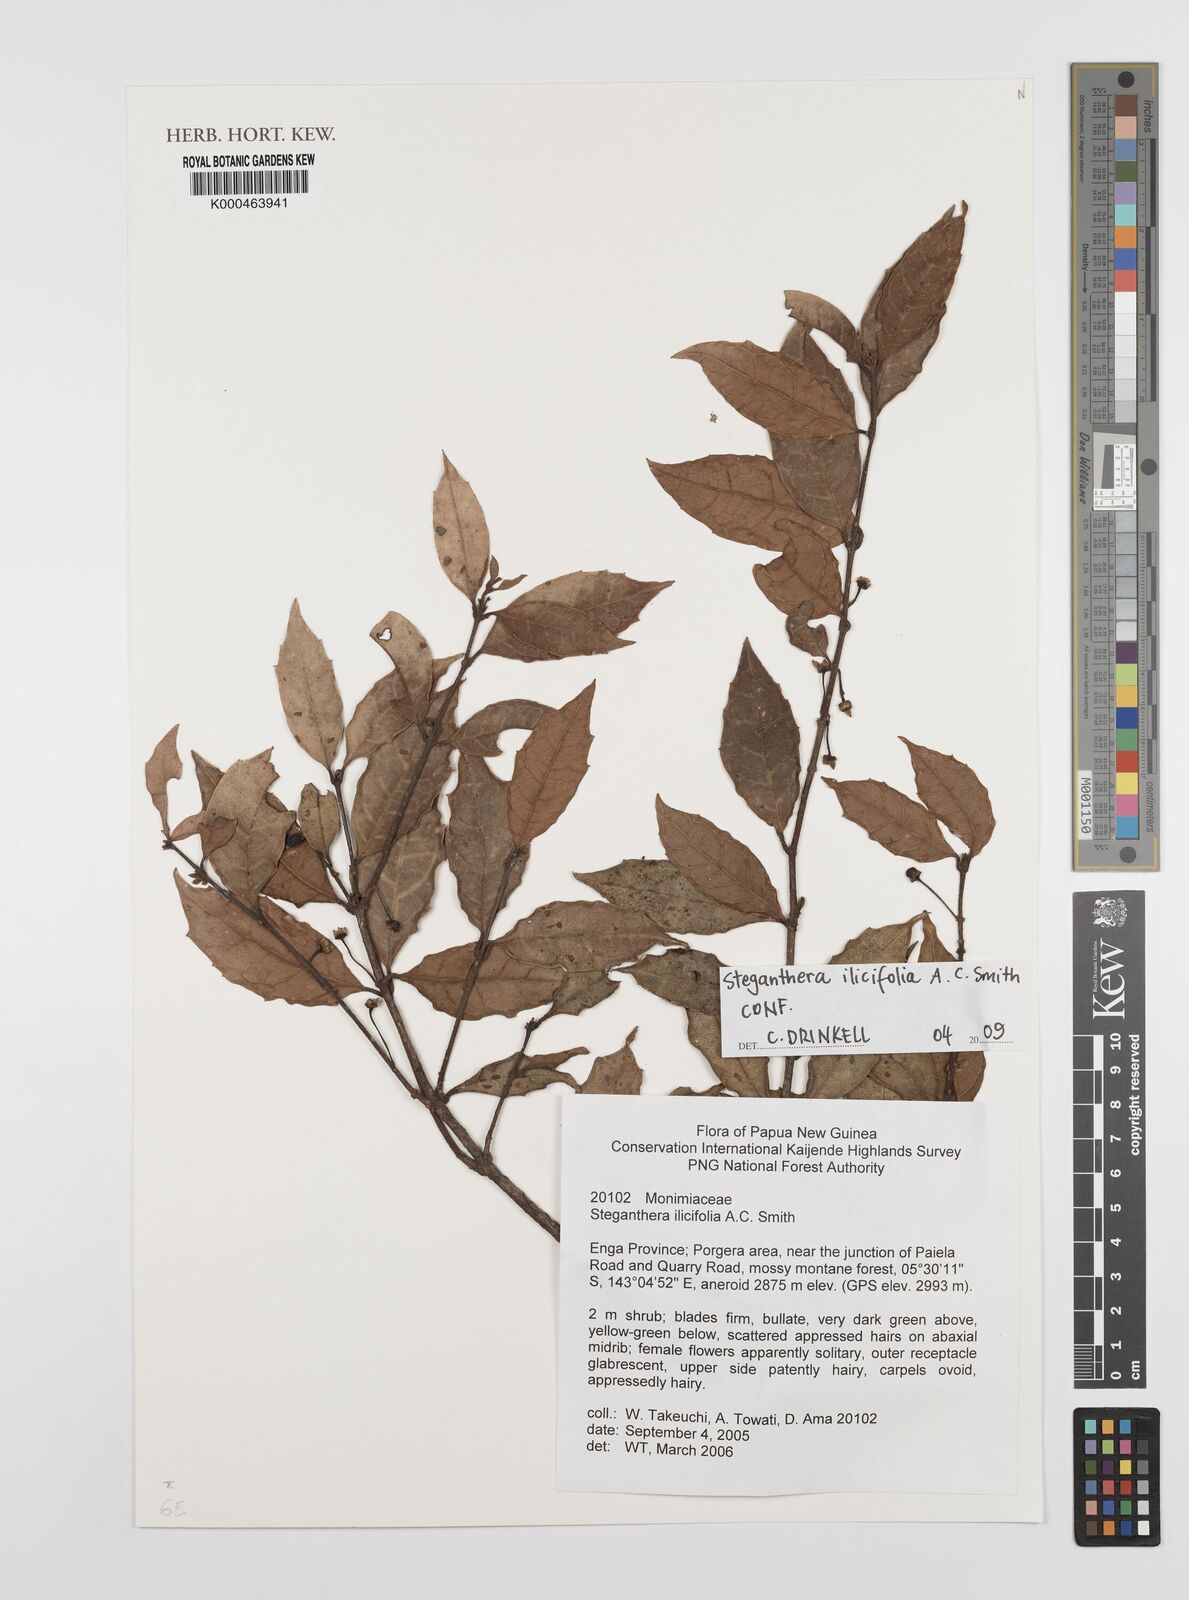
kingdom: Plantae
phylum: Tracheophyta
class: Magnoliopsida
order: Laurales
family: Monimiaceae
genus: Steganthera
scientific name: Steganthera
